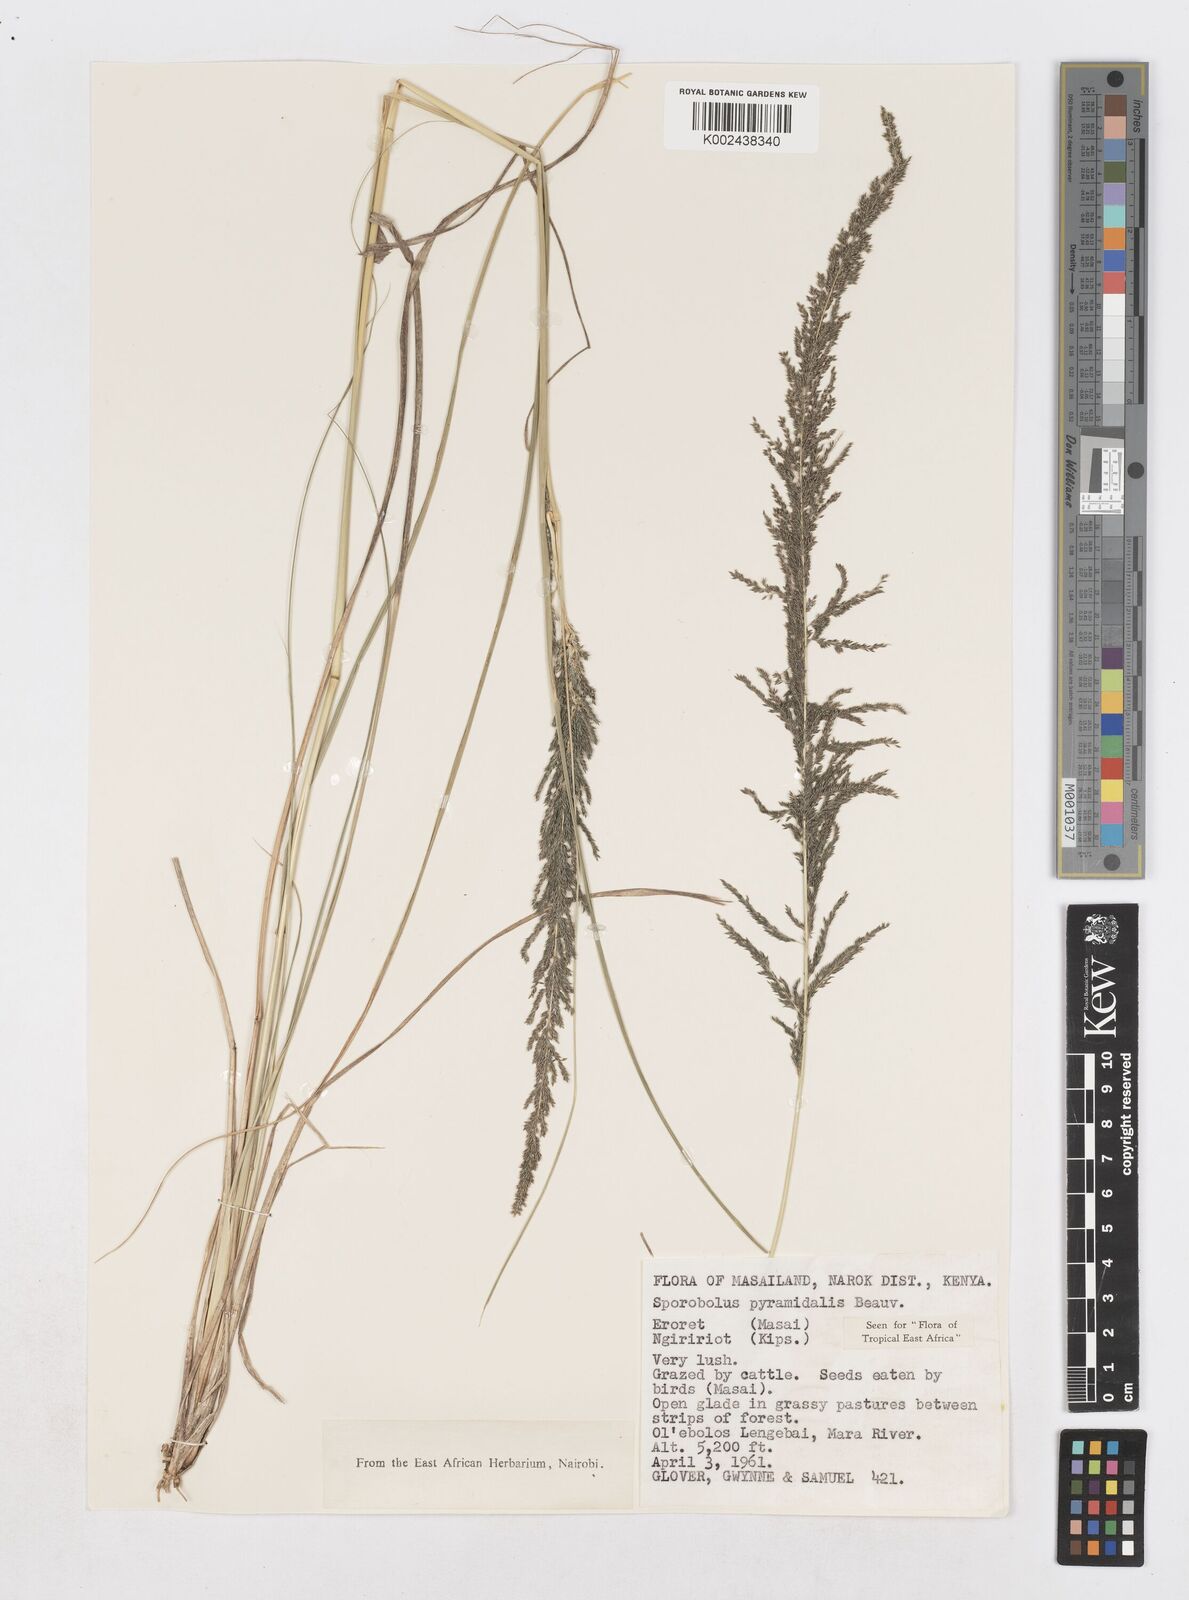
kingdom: Plantae
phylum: Tracheophyta
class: Liliopsida
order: Poales
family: Poaceae
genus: Sporobolus
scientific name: Sporobolus pyramidalis
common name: West indian dropseed
